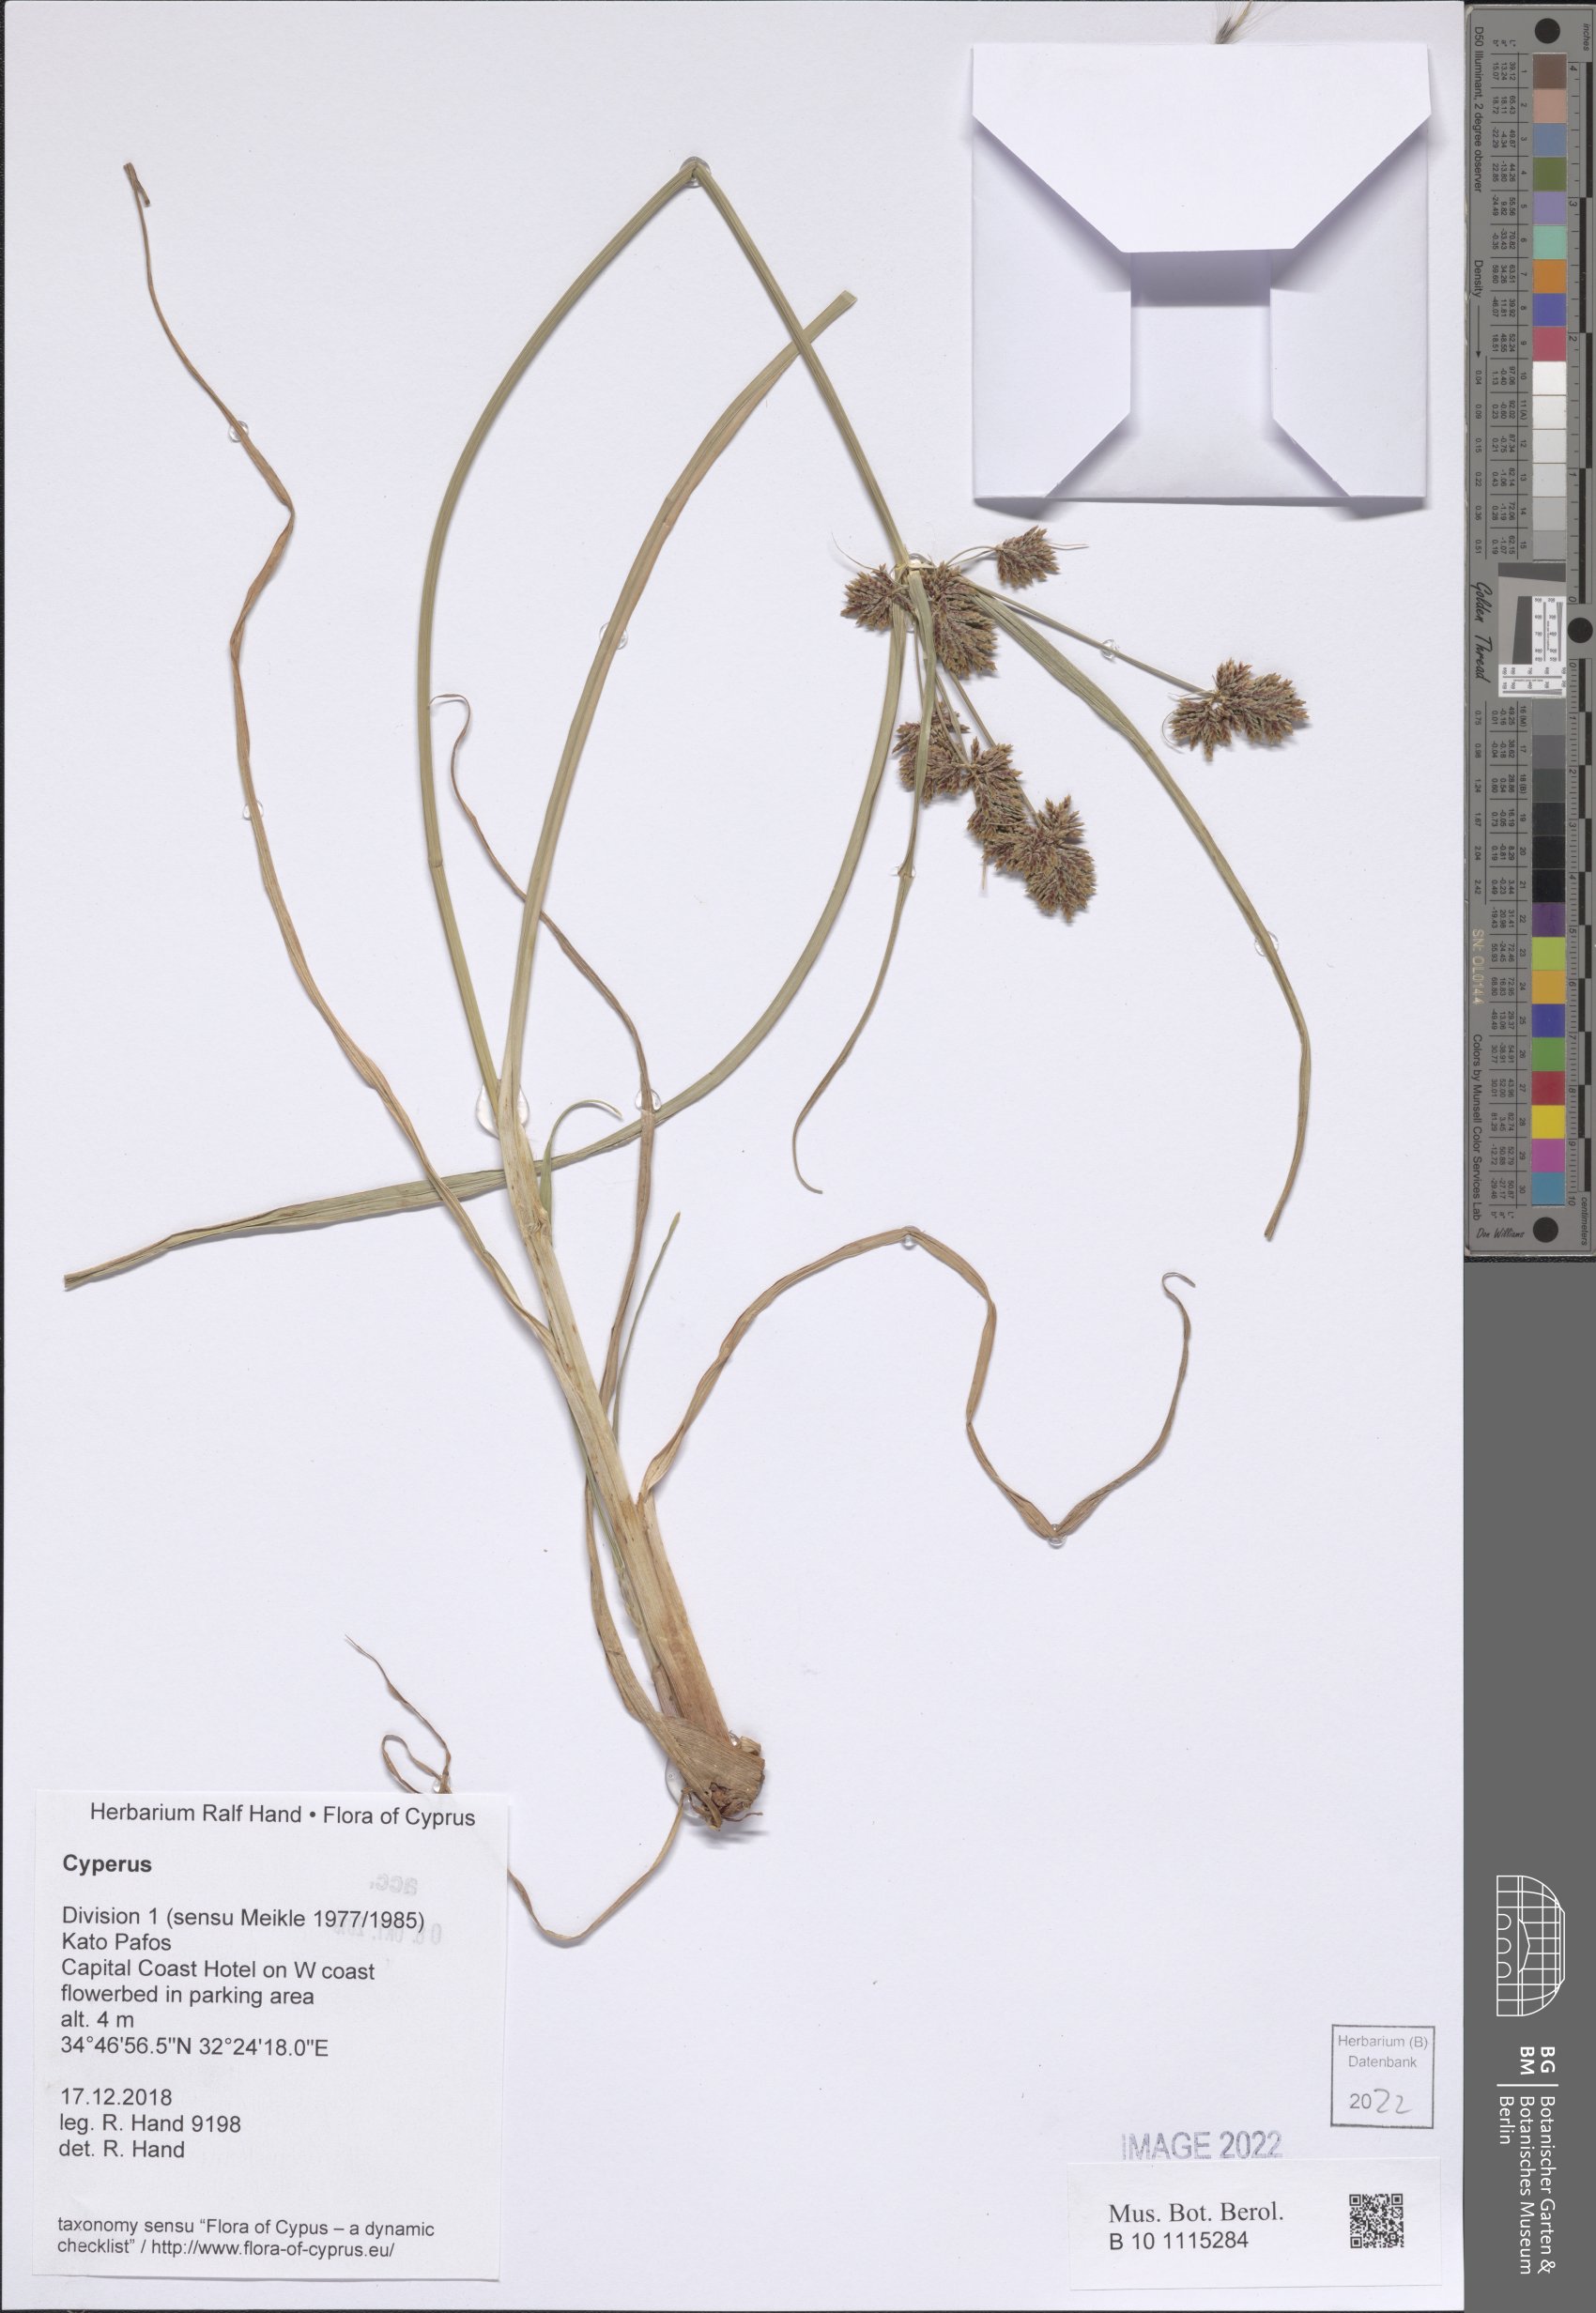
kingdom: Plantae
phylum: Tracheophyta
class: Liliopsida
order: Poales
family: Cyperaceae
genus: Cyperus
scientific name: Cyperus
